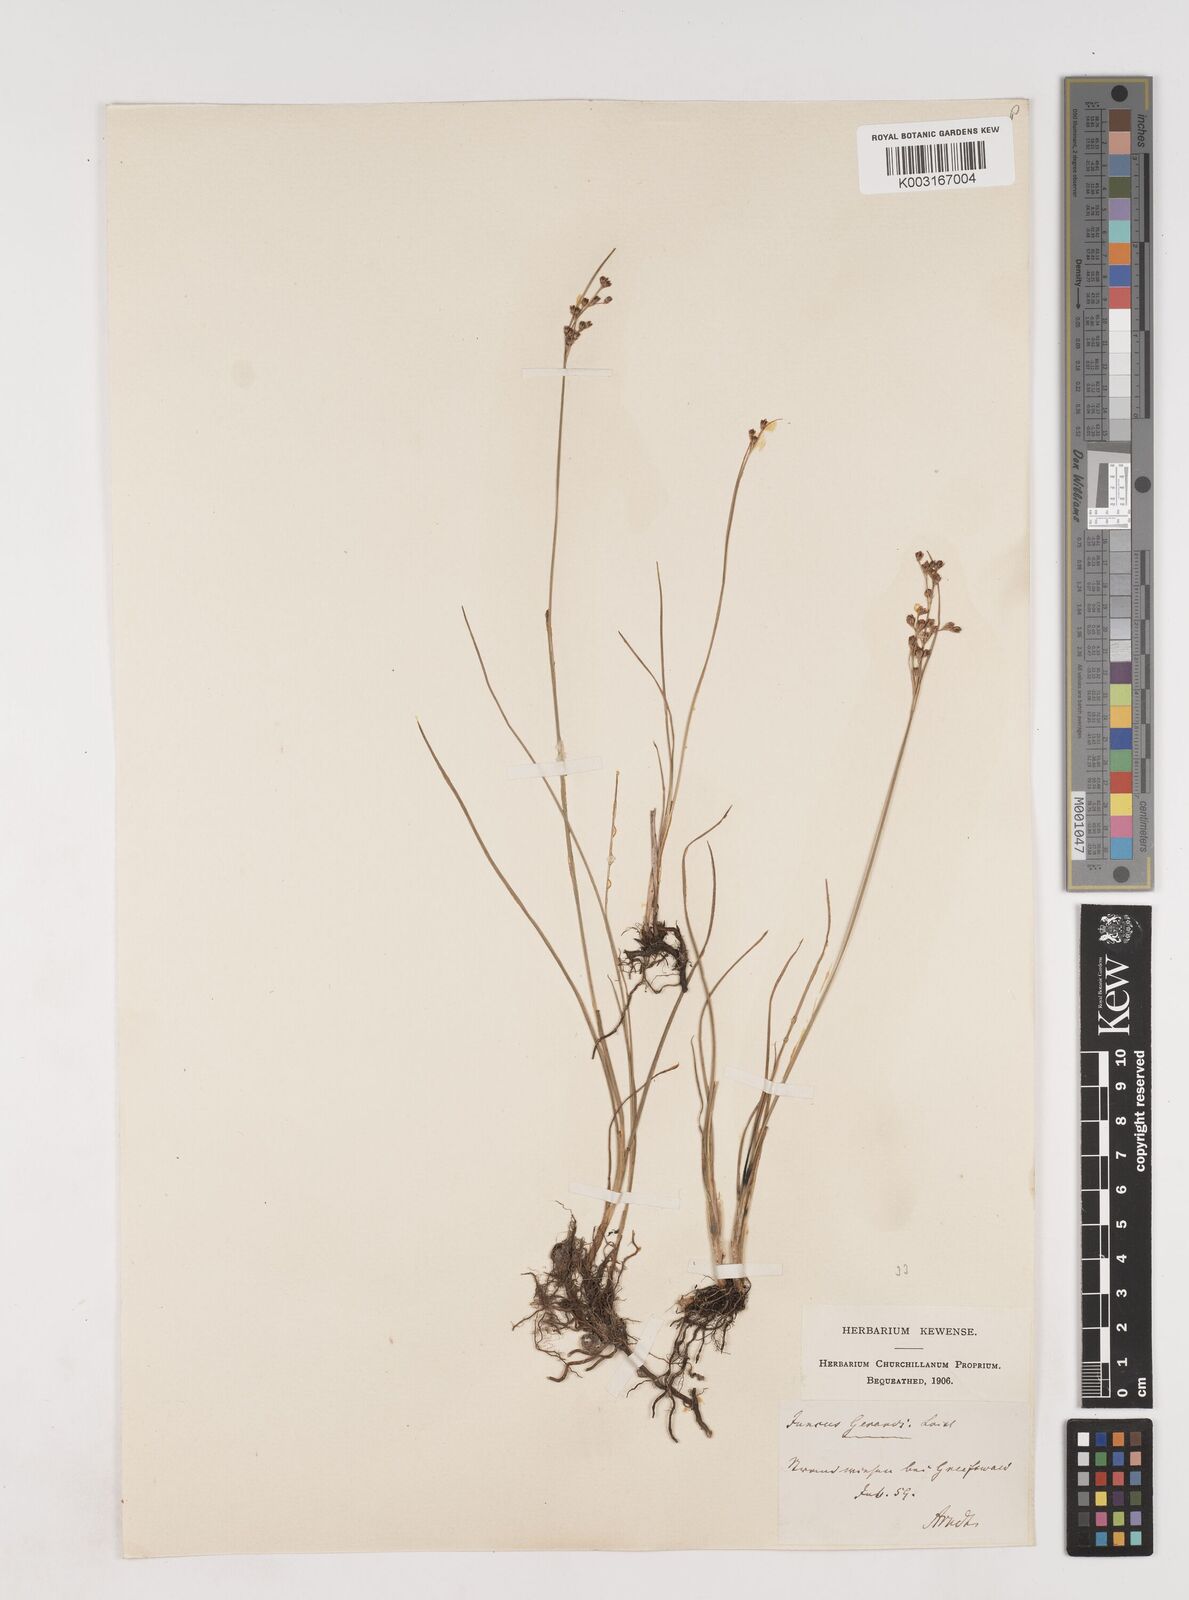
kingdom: Plantae
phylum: Tracheophyta
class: Liliopsida
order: Poales
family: Juncaceae
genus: Juncus
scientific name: Juncus gerardi
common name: Saltmarsh rush
